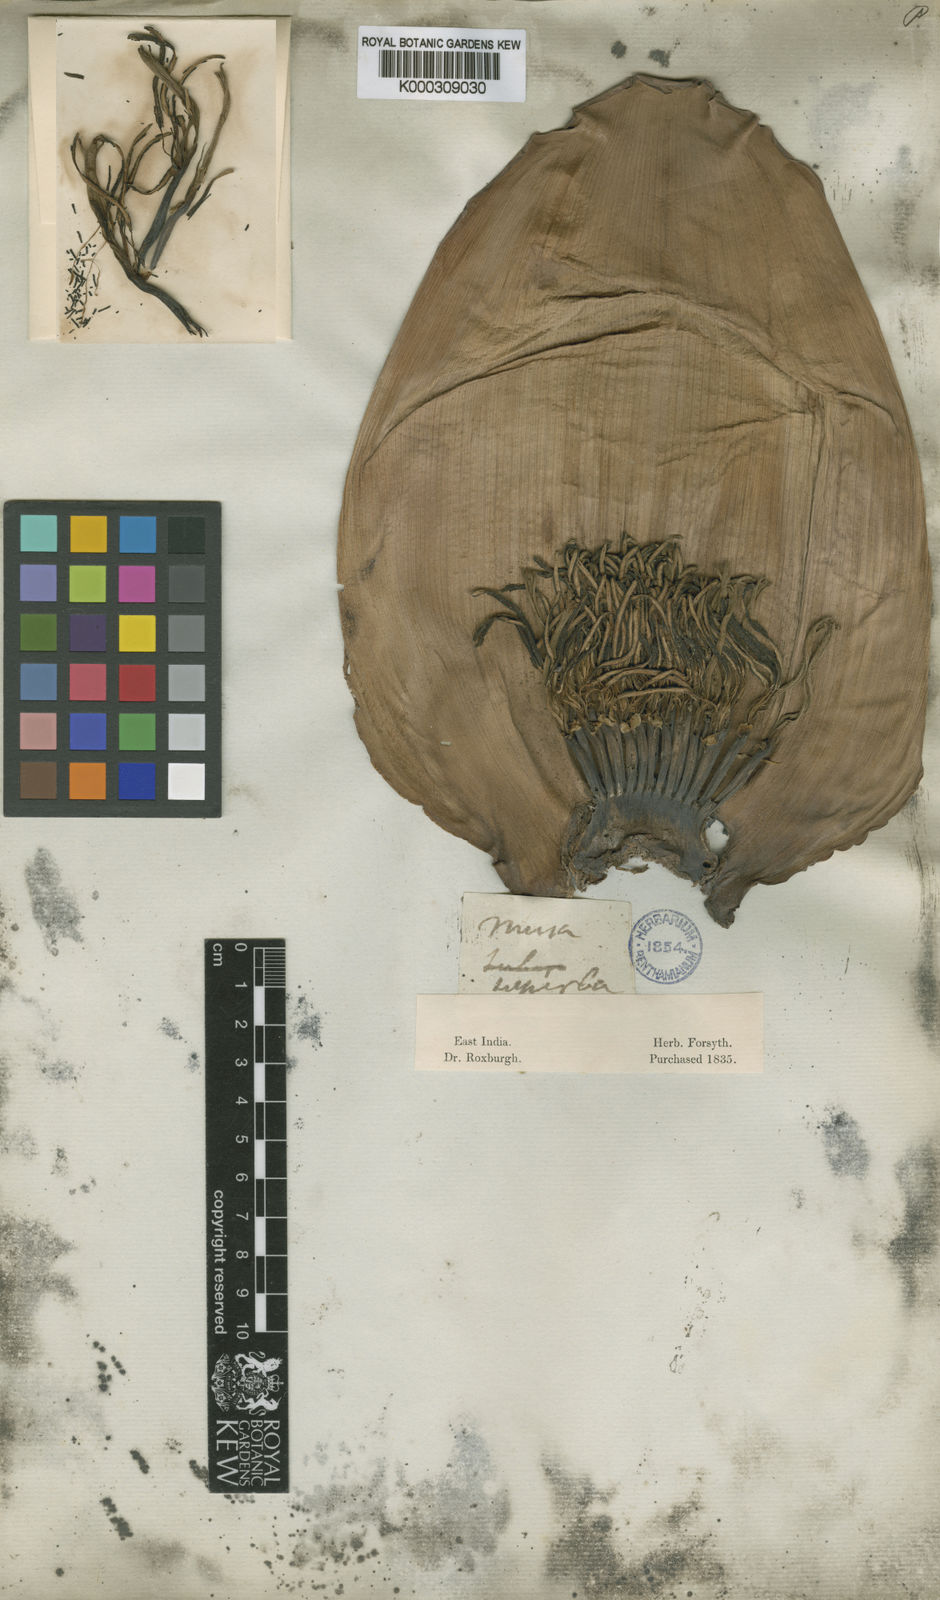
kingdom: Plantae
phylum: Tracheophyta
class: Liliopsida
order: Zingiberales
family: Musaceae
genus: Ensete
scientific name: Ensete superbum
